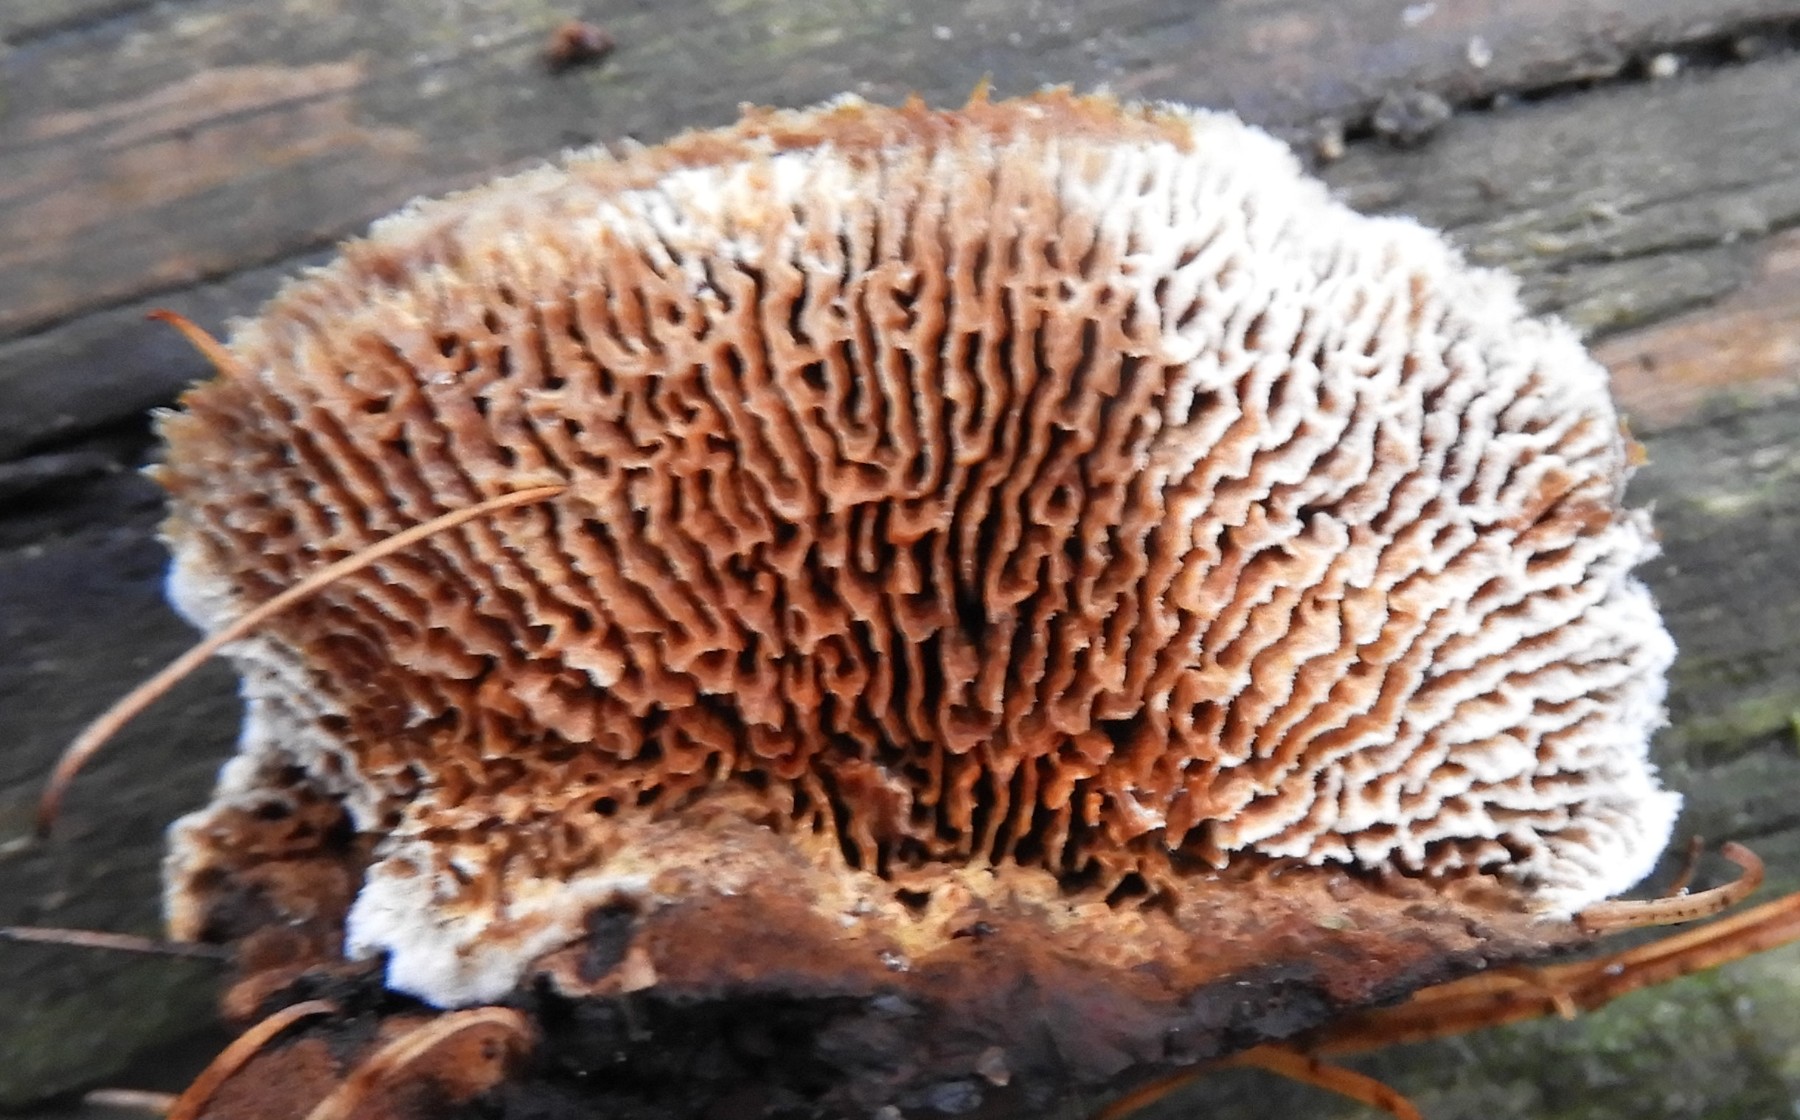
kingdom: Fungi
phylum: Basidiomycota
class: Agaricomycetes
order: Gloeophyllales
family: Gloeophyllaceae
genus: Gloeophyllum
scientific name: Gloeophyllum sepiarium
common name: fyrre-korkhat
